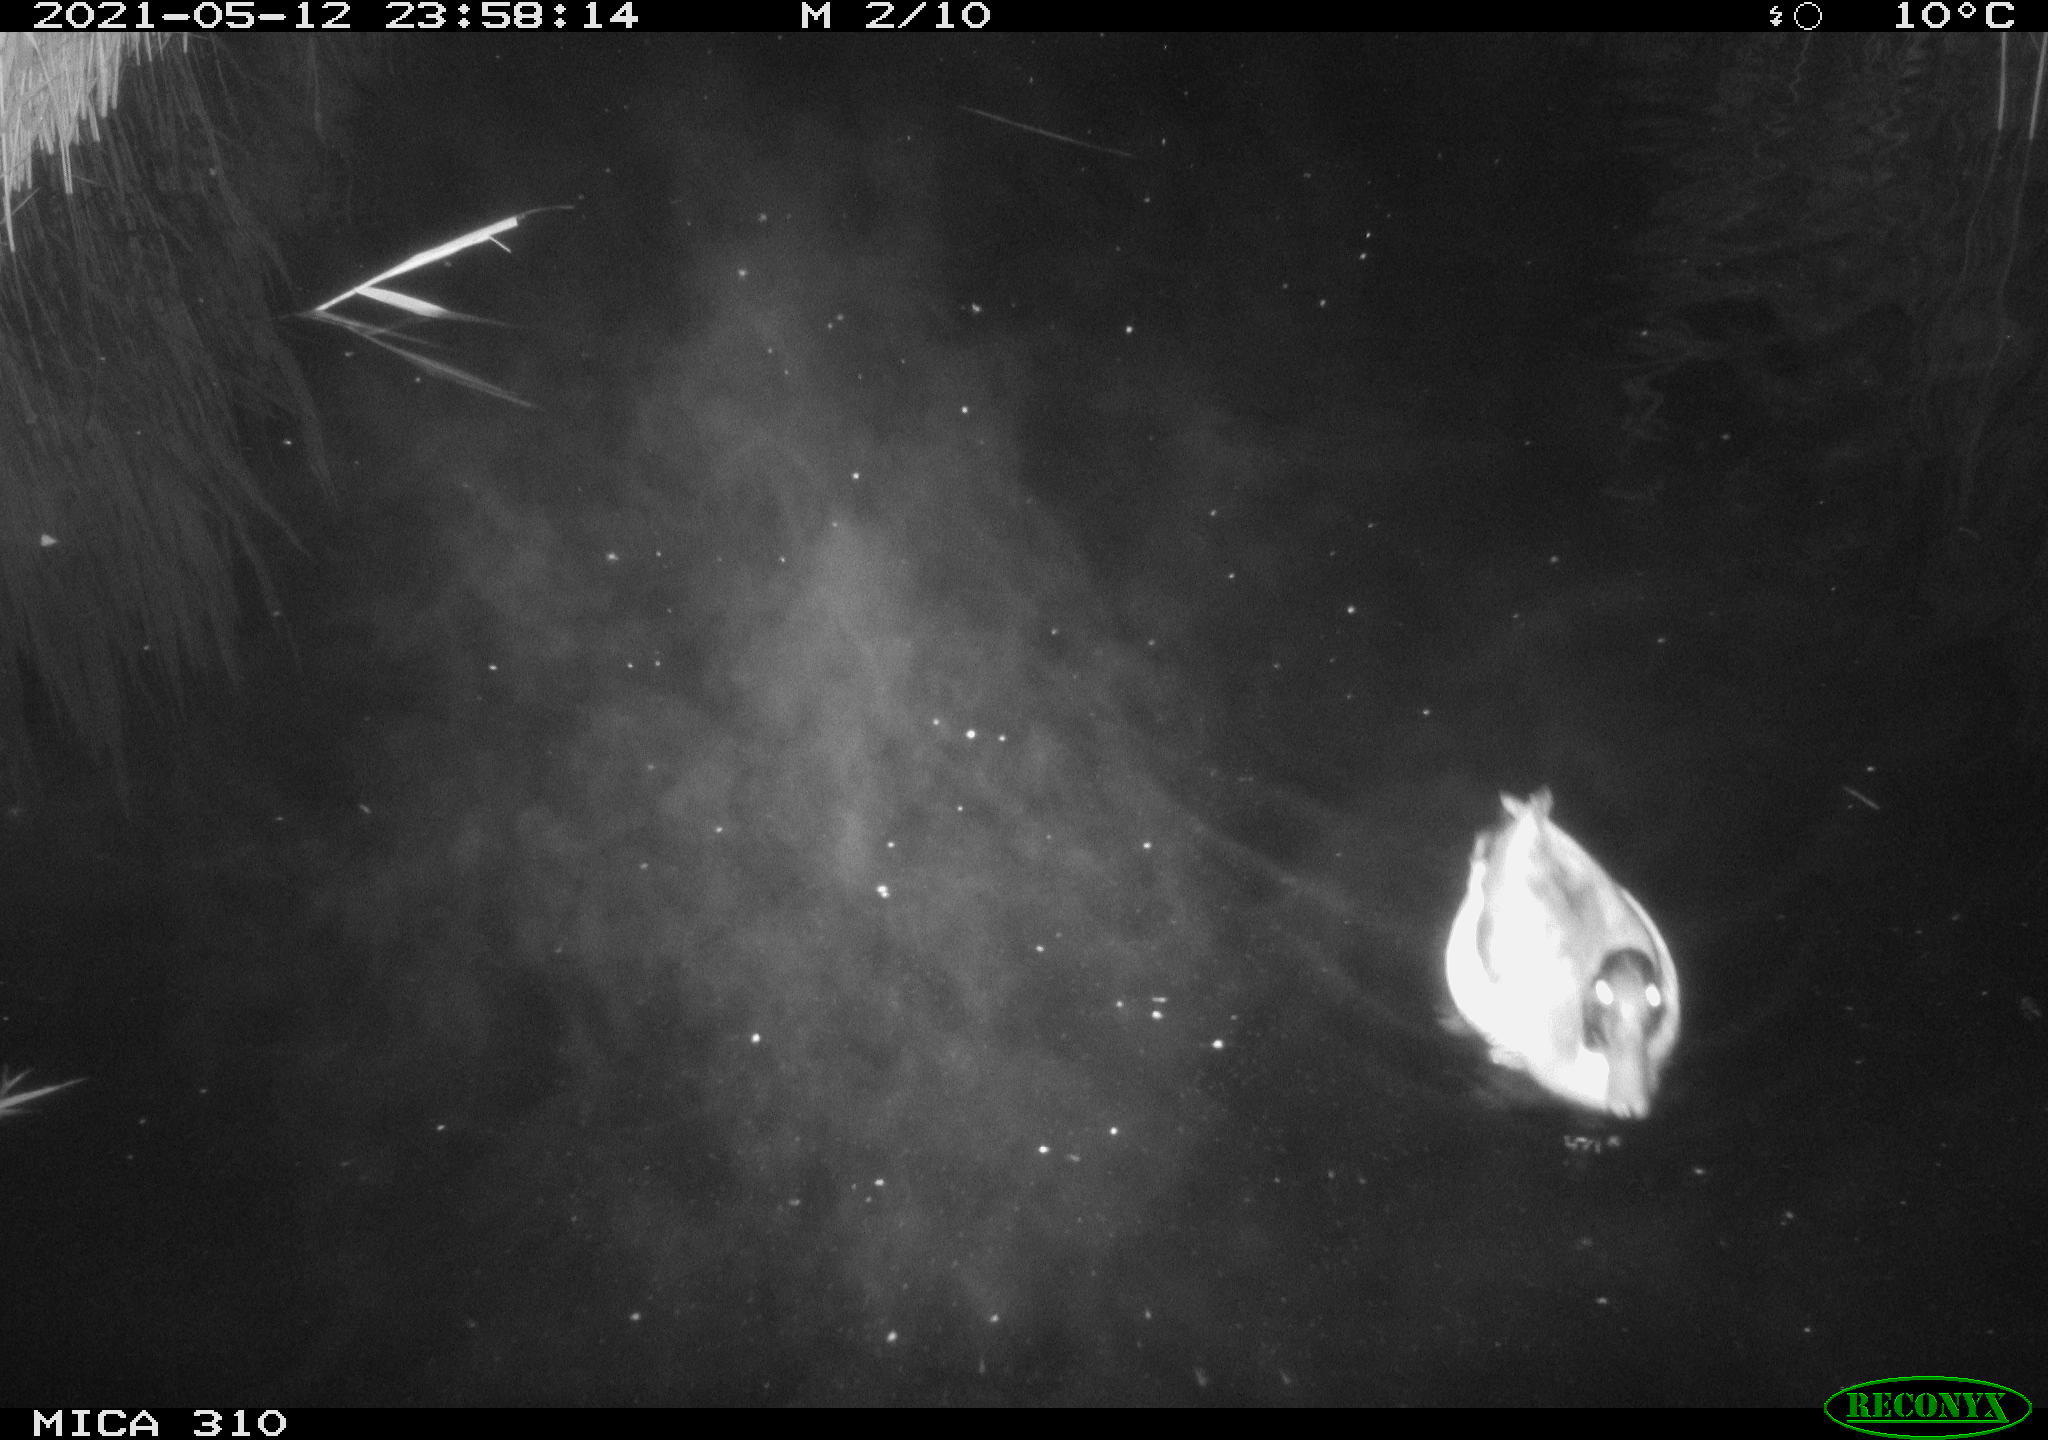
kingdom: Animalia
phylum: Chordata
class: Aves
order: Anseriformes
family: Anatidae
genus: Anas
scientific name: Anas platyrhynchos
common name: Mallard
